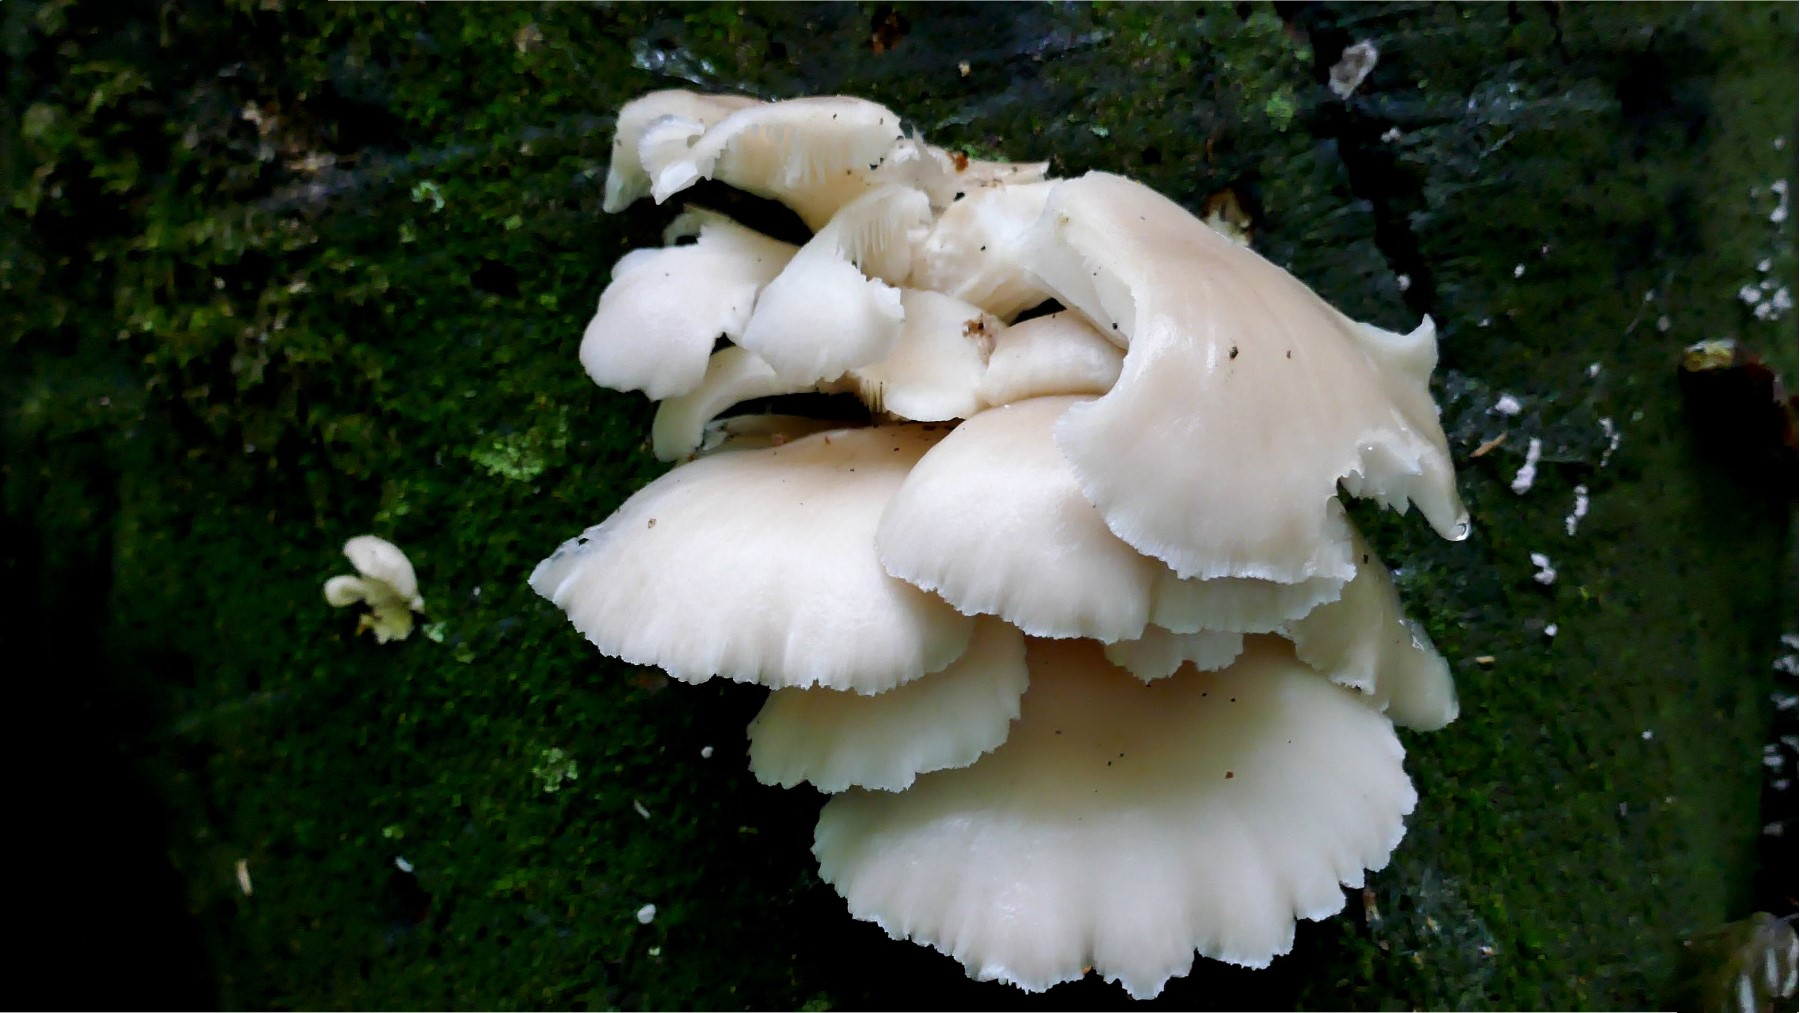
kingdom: Fungi
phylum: Basidiomycota
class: Agaricomycetes
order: Agaricales
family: Pleurotaceae
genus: Pleurotus
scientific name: Pleurotus pulmonarius
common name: sommer-østershat
